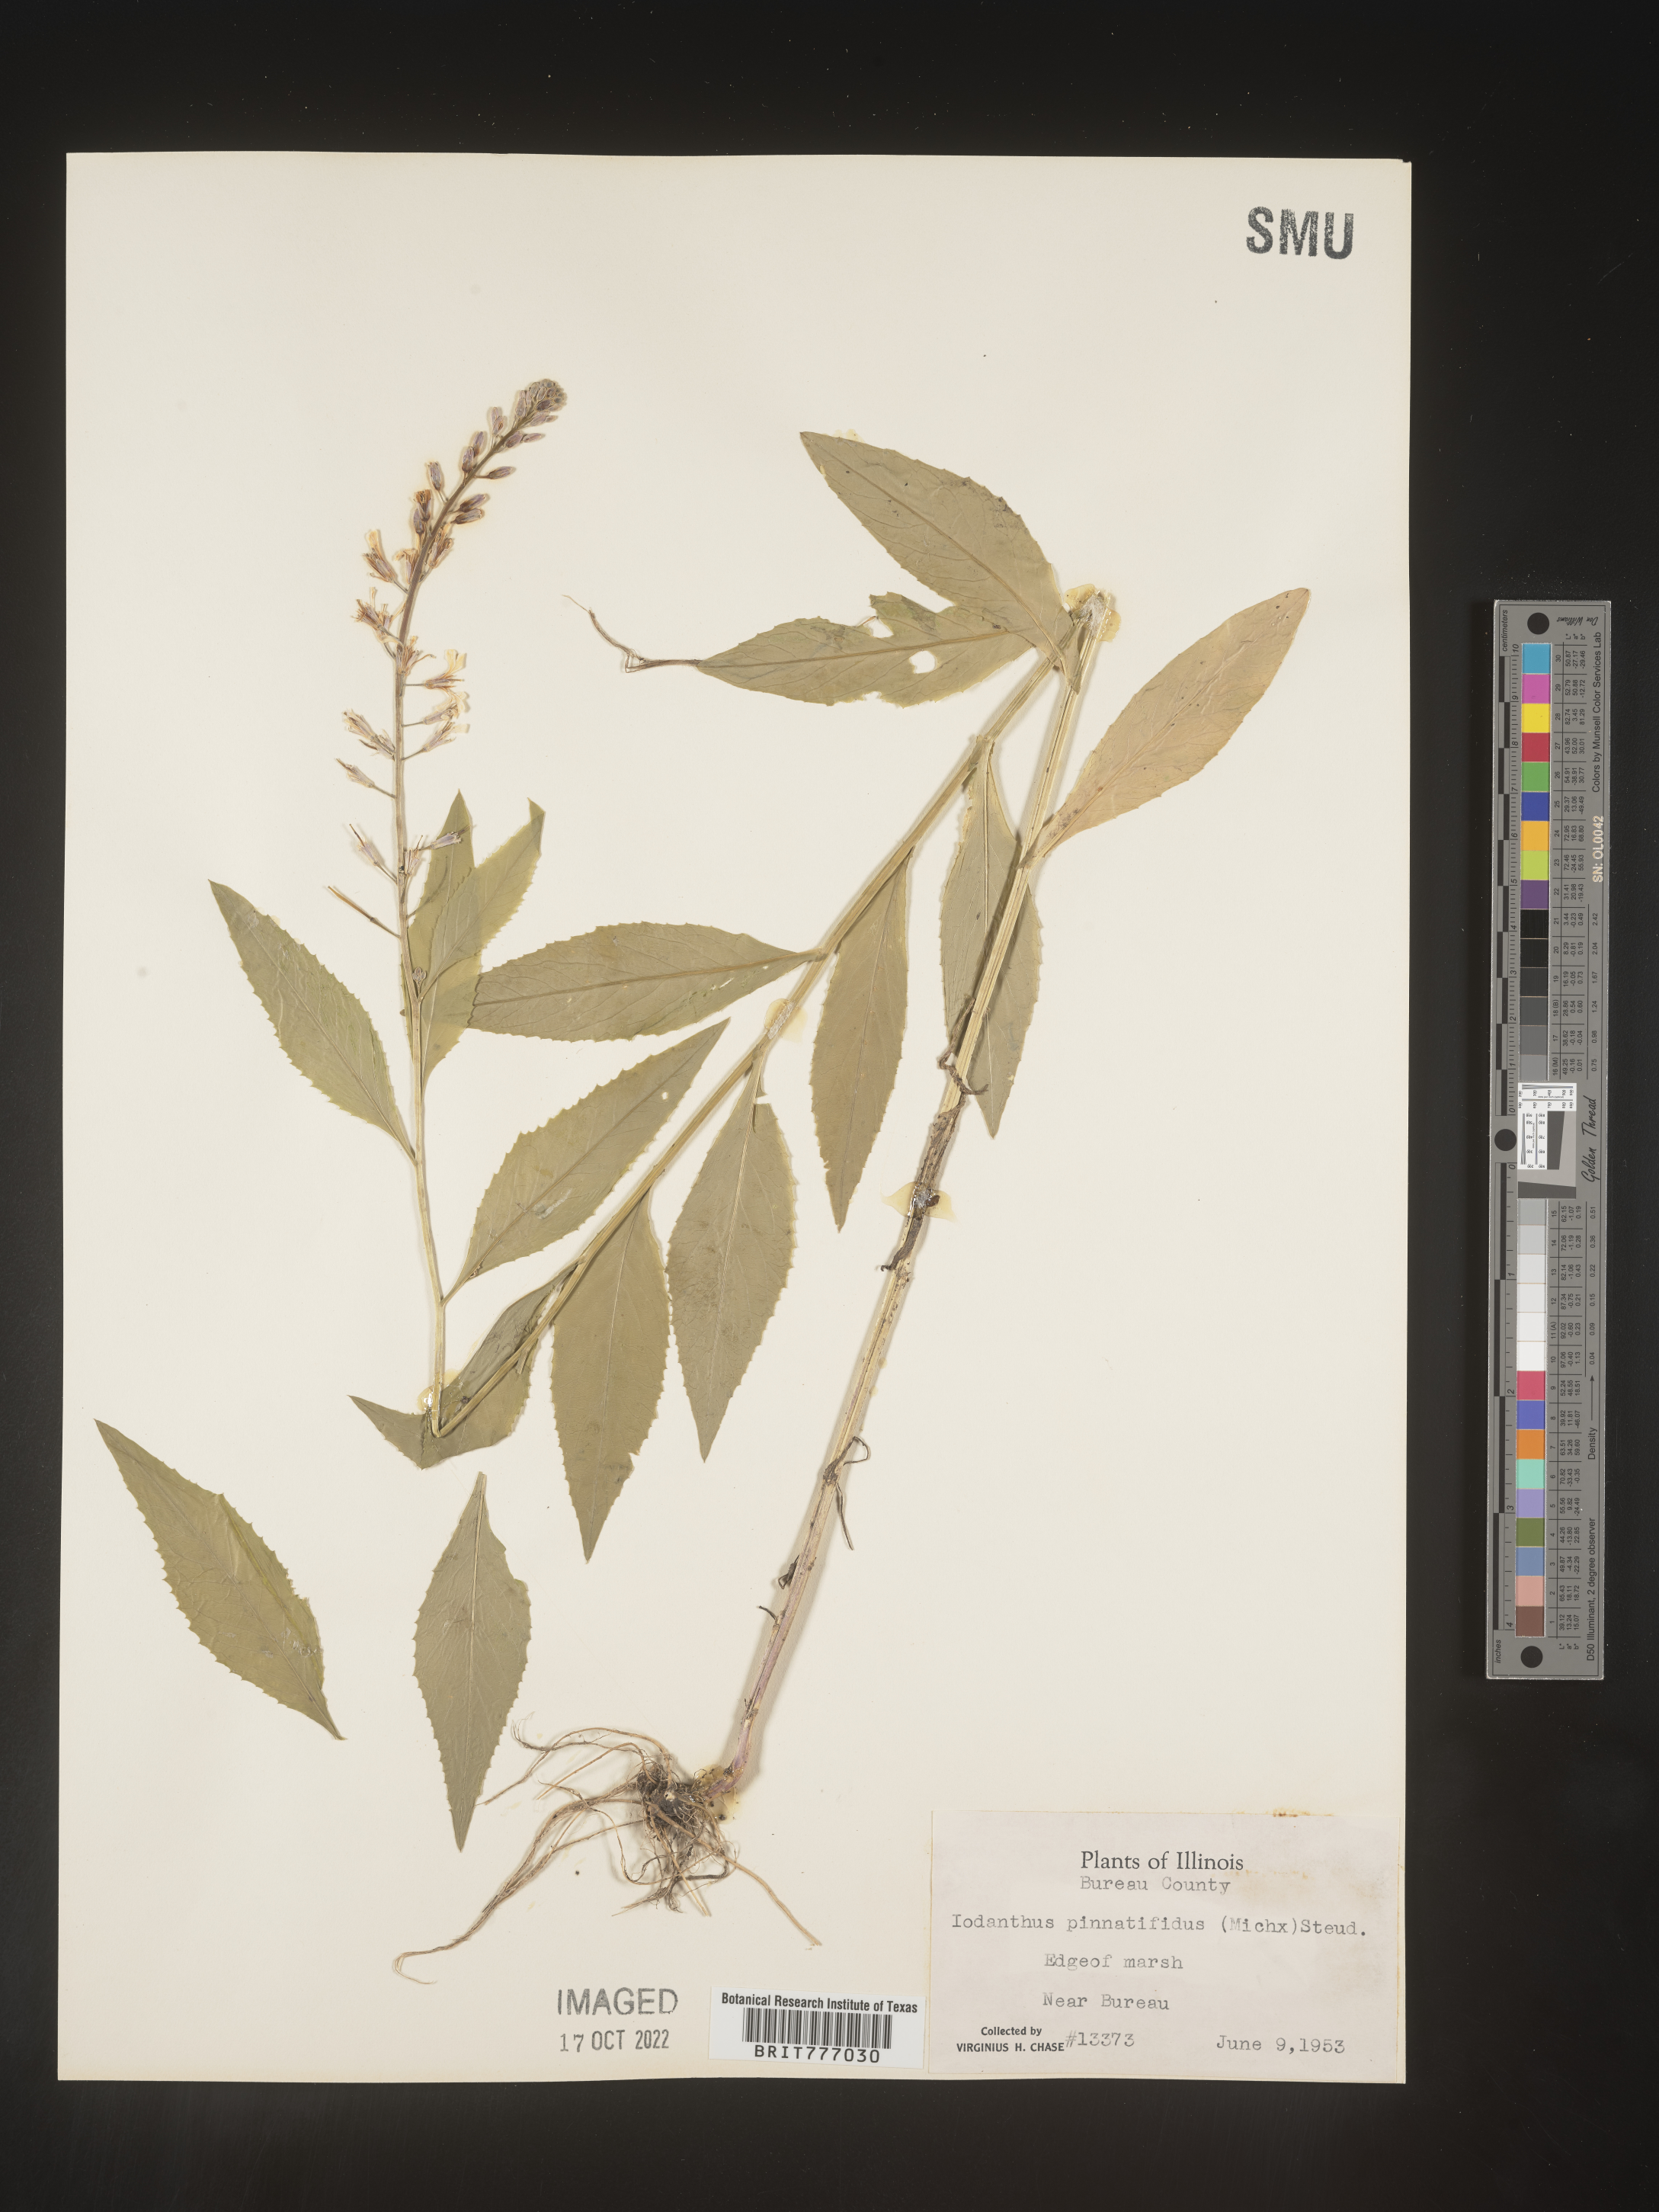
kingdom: Plantae
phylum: Tracheophyta
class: Magnoliopsida
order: Brassicales
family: Brassicaceae
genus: Iodanthus
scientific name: Iodanthus
